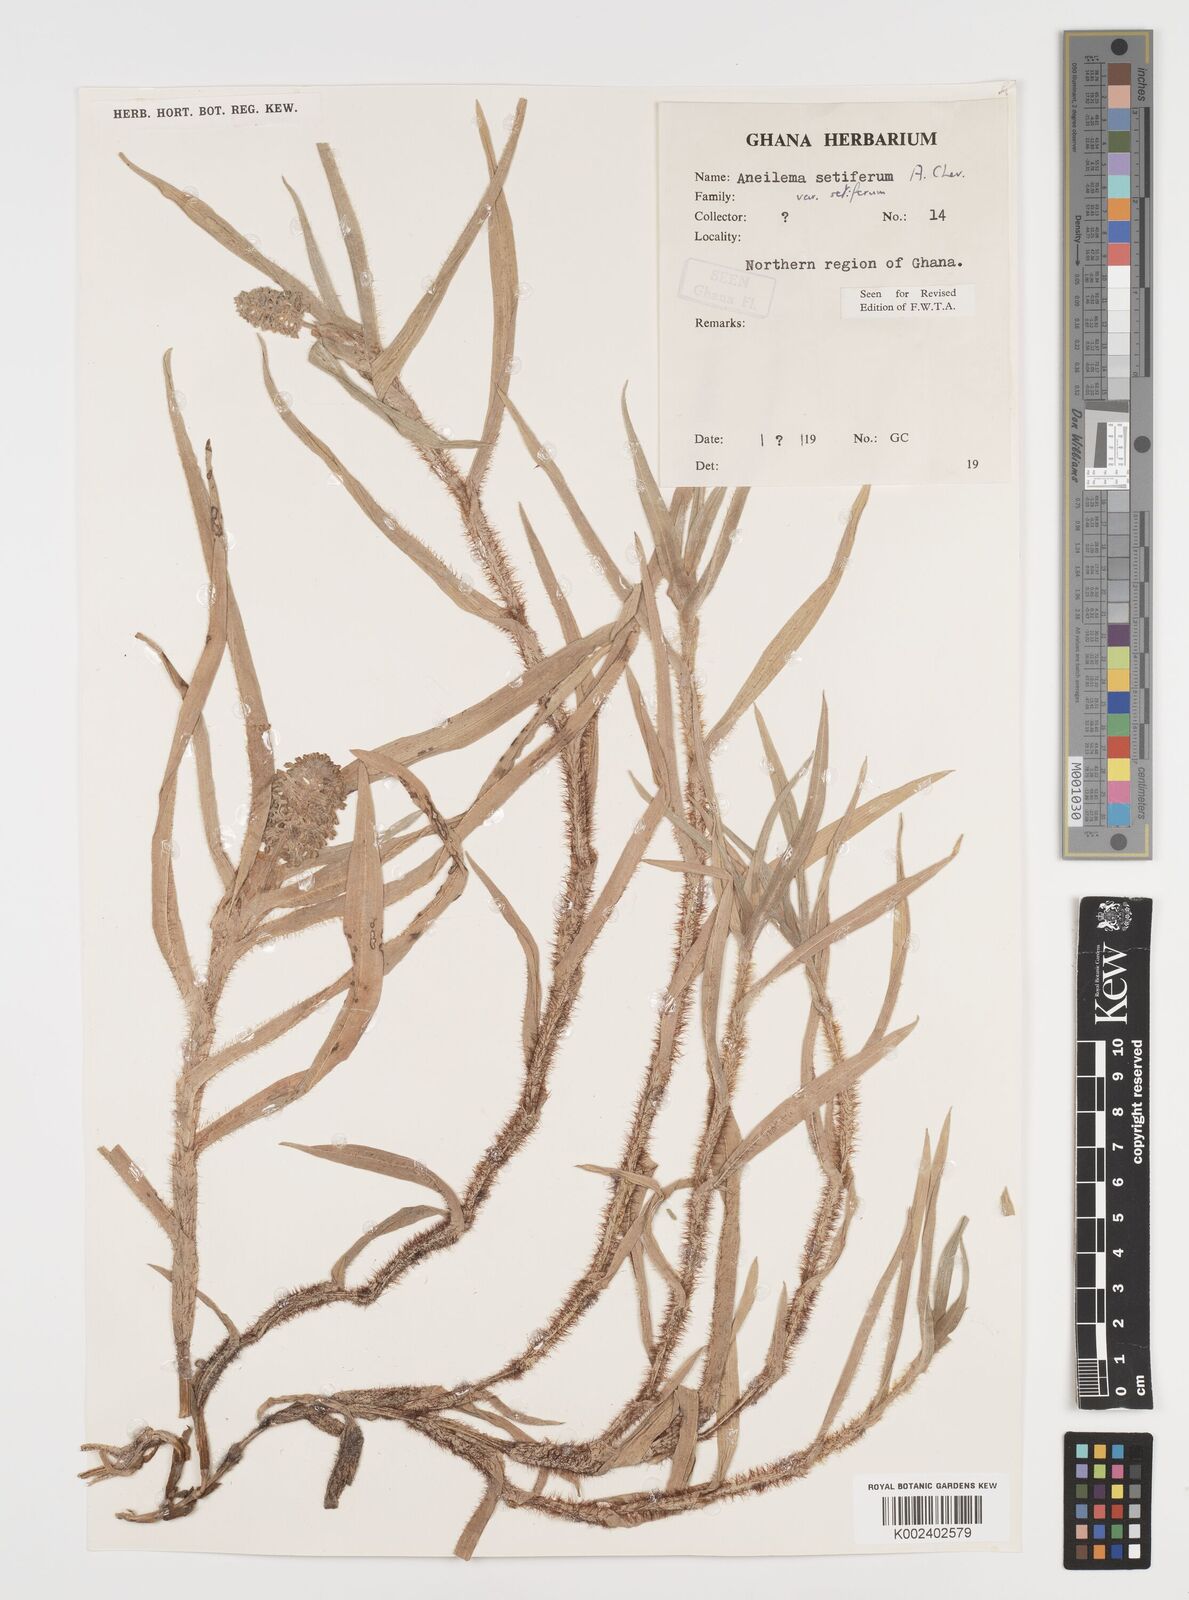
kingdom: Plantae
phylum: Tracheophyta
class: Liliopsida
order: Commelinales
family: Commelinaceae
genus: Aneilema
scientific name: Aneilema setiferum
